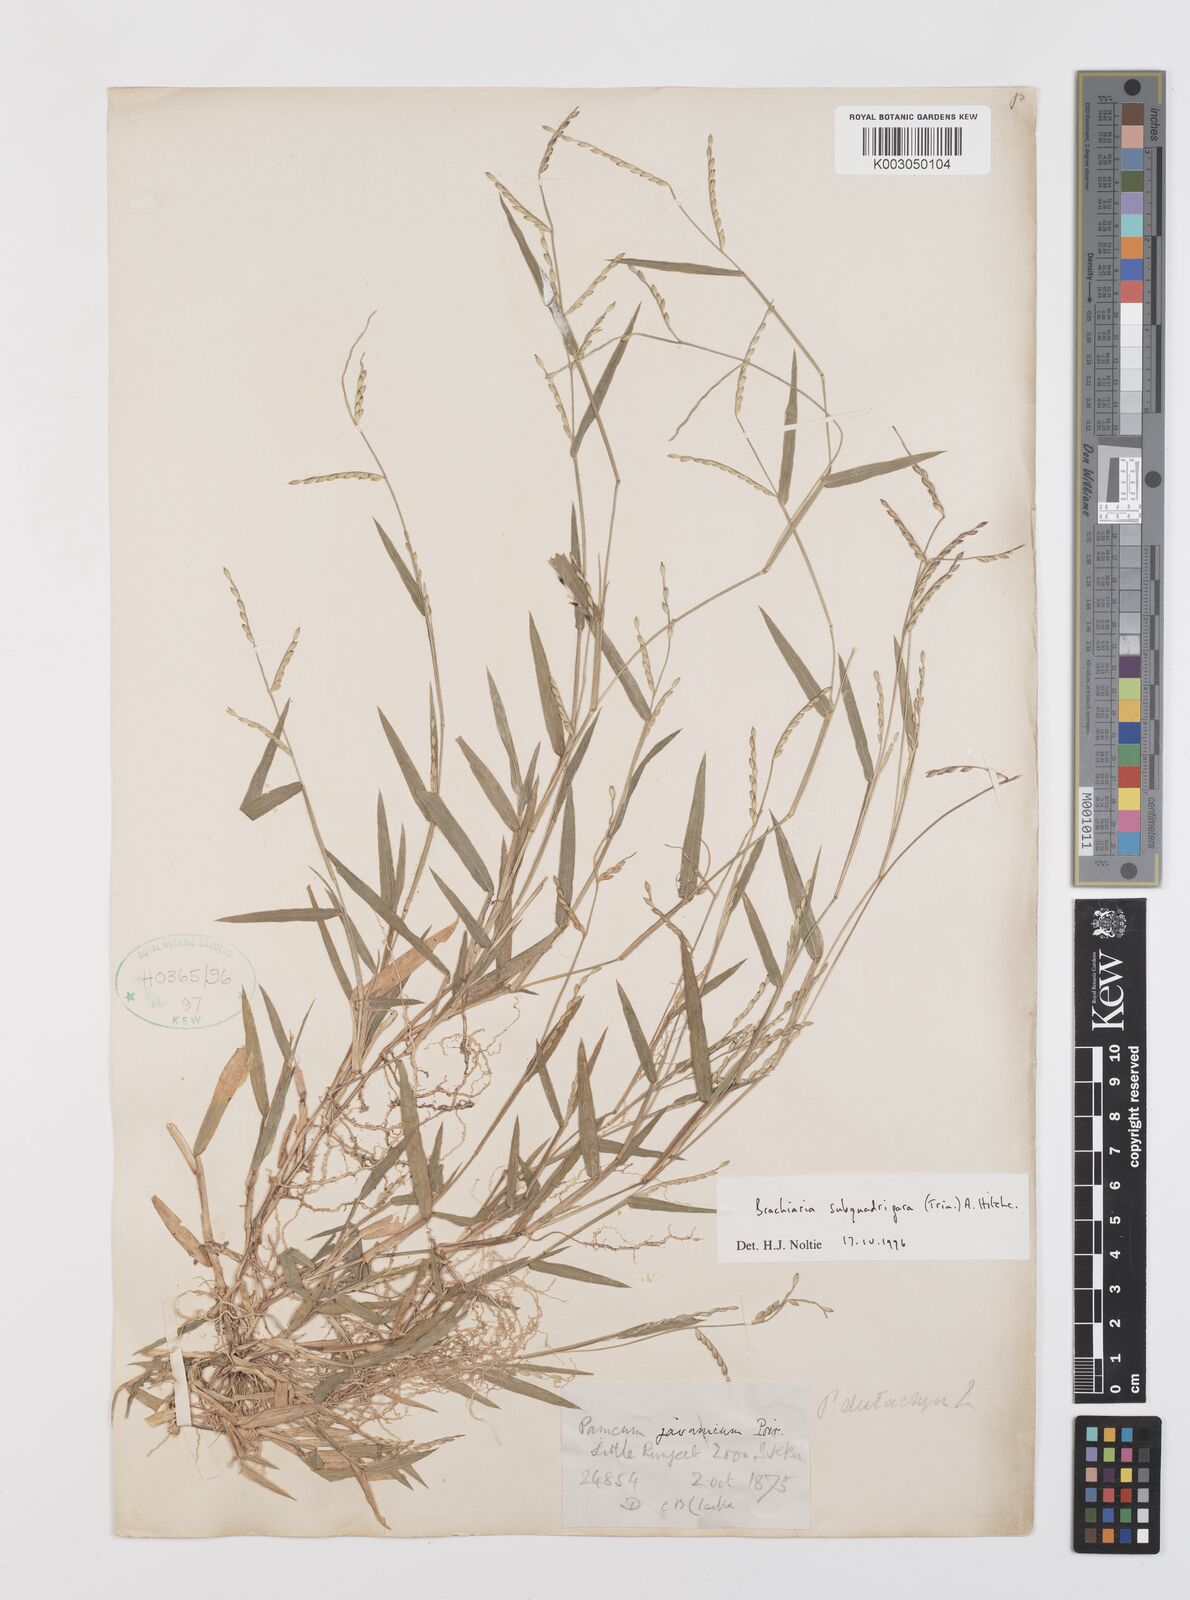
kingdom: Plantae
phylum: Tracheophyta
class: Liliopsida
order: Poales
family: Poaceae
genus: Urochloa
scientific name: Urochloa subquadripara
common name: Armgrass millet
